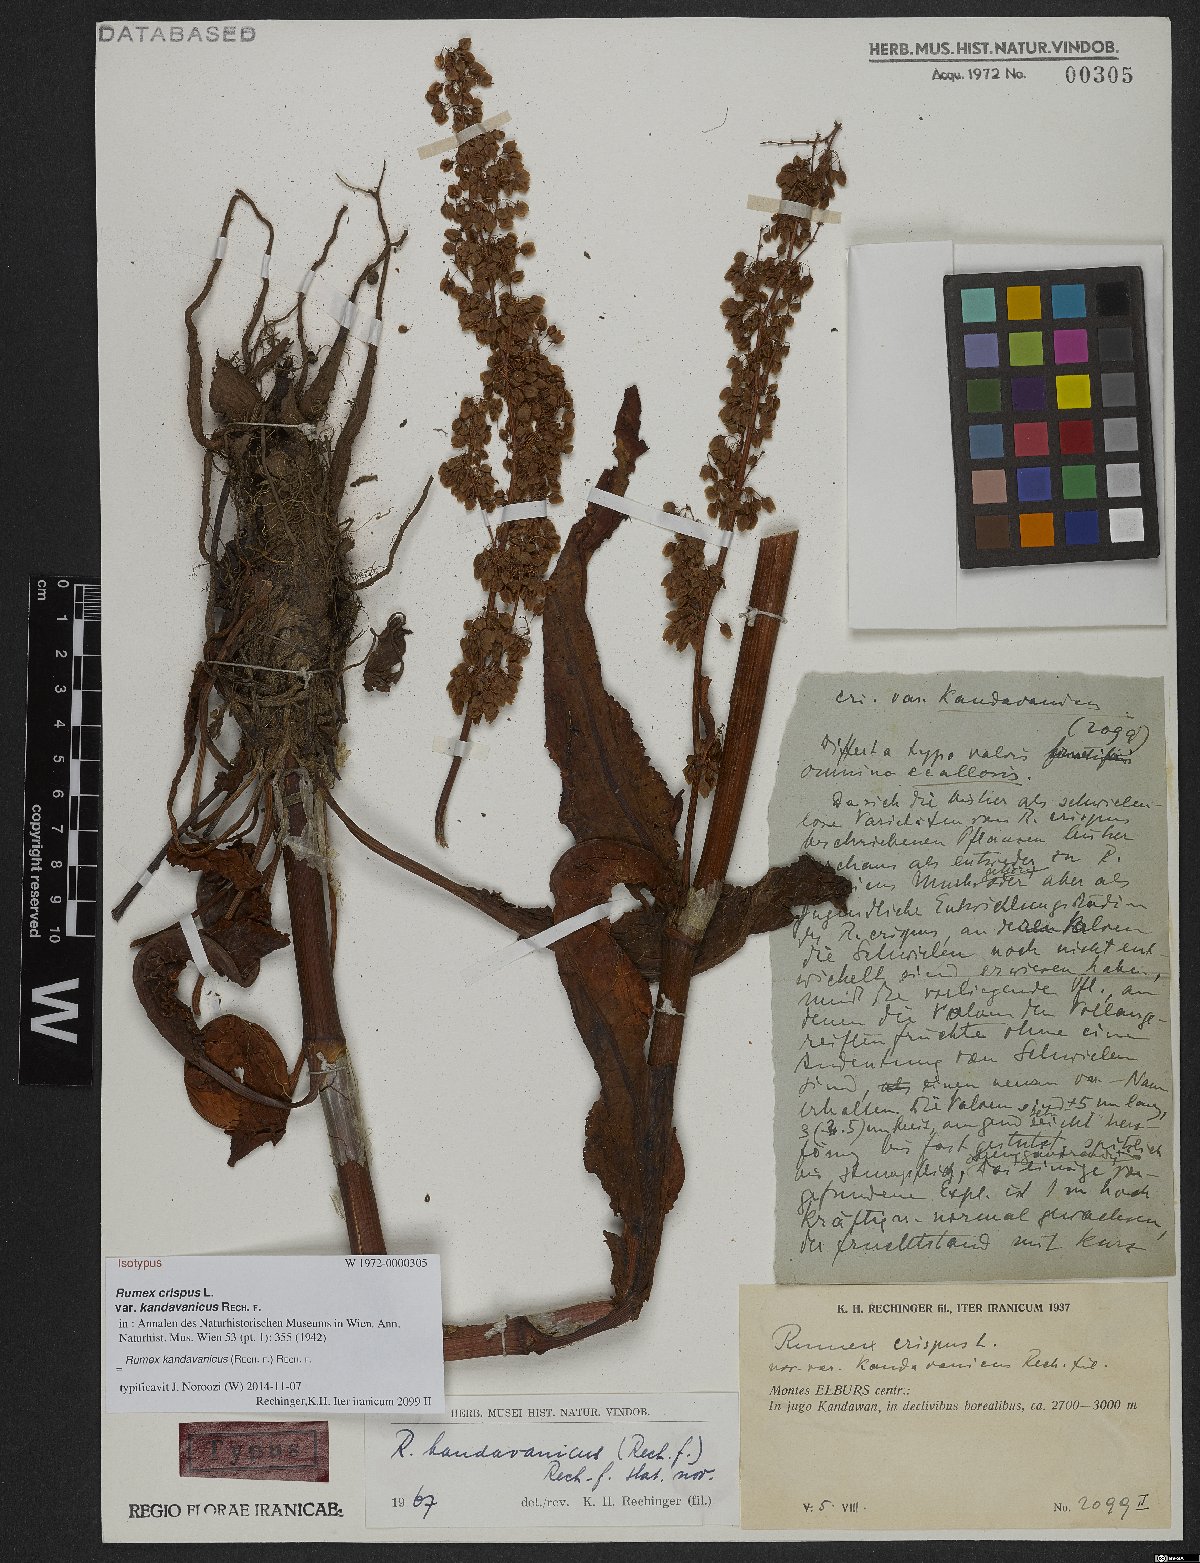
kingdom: Plantae
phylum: Tracheophyta
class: Magnoliopsida
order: Caryophyllales
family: Polygonaceae
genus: Rumex
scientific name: Rumex kandavanicus
